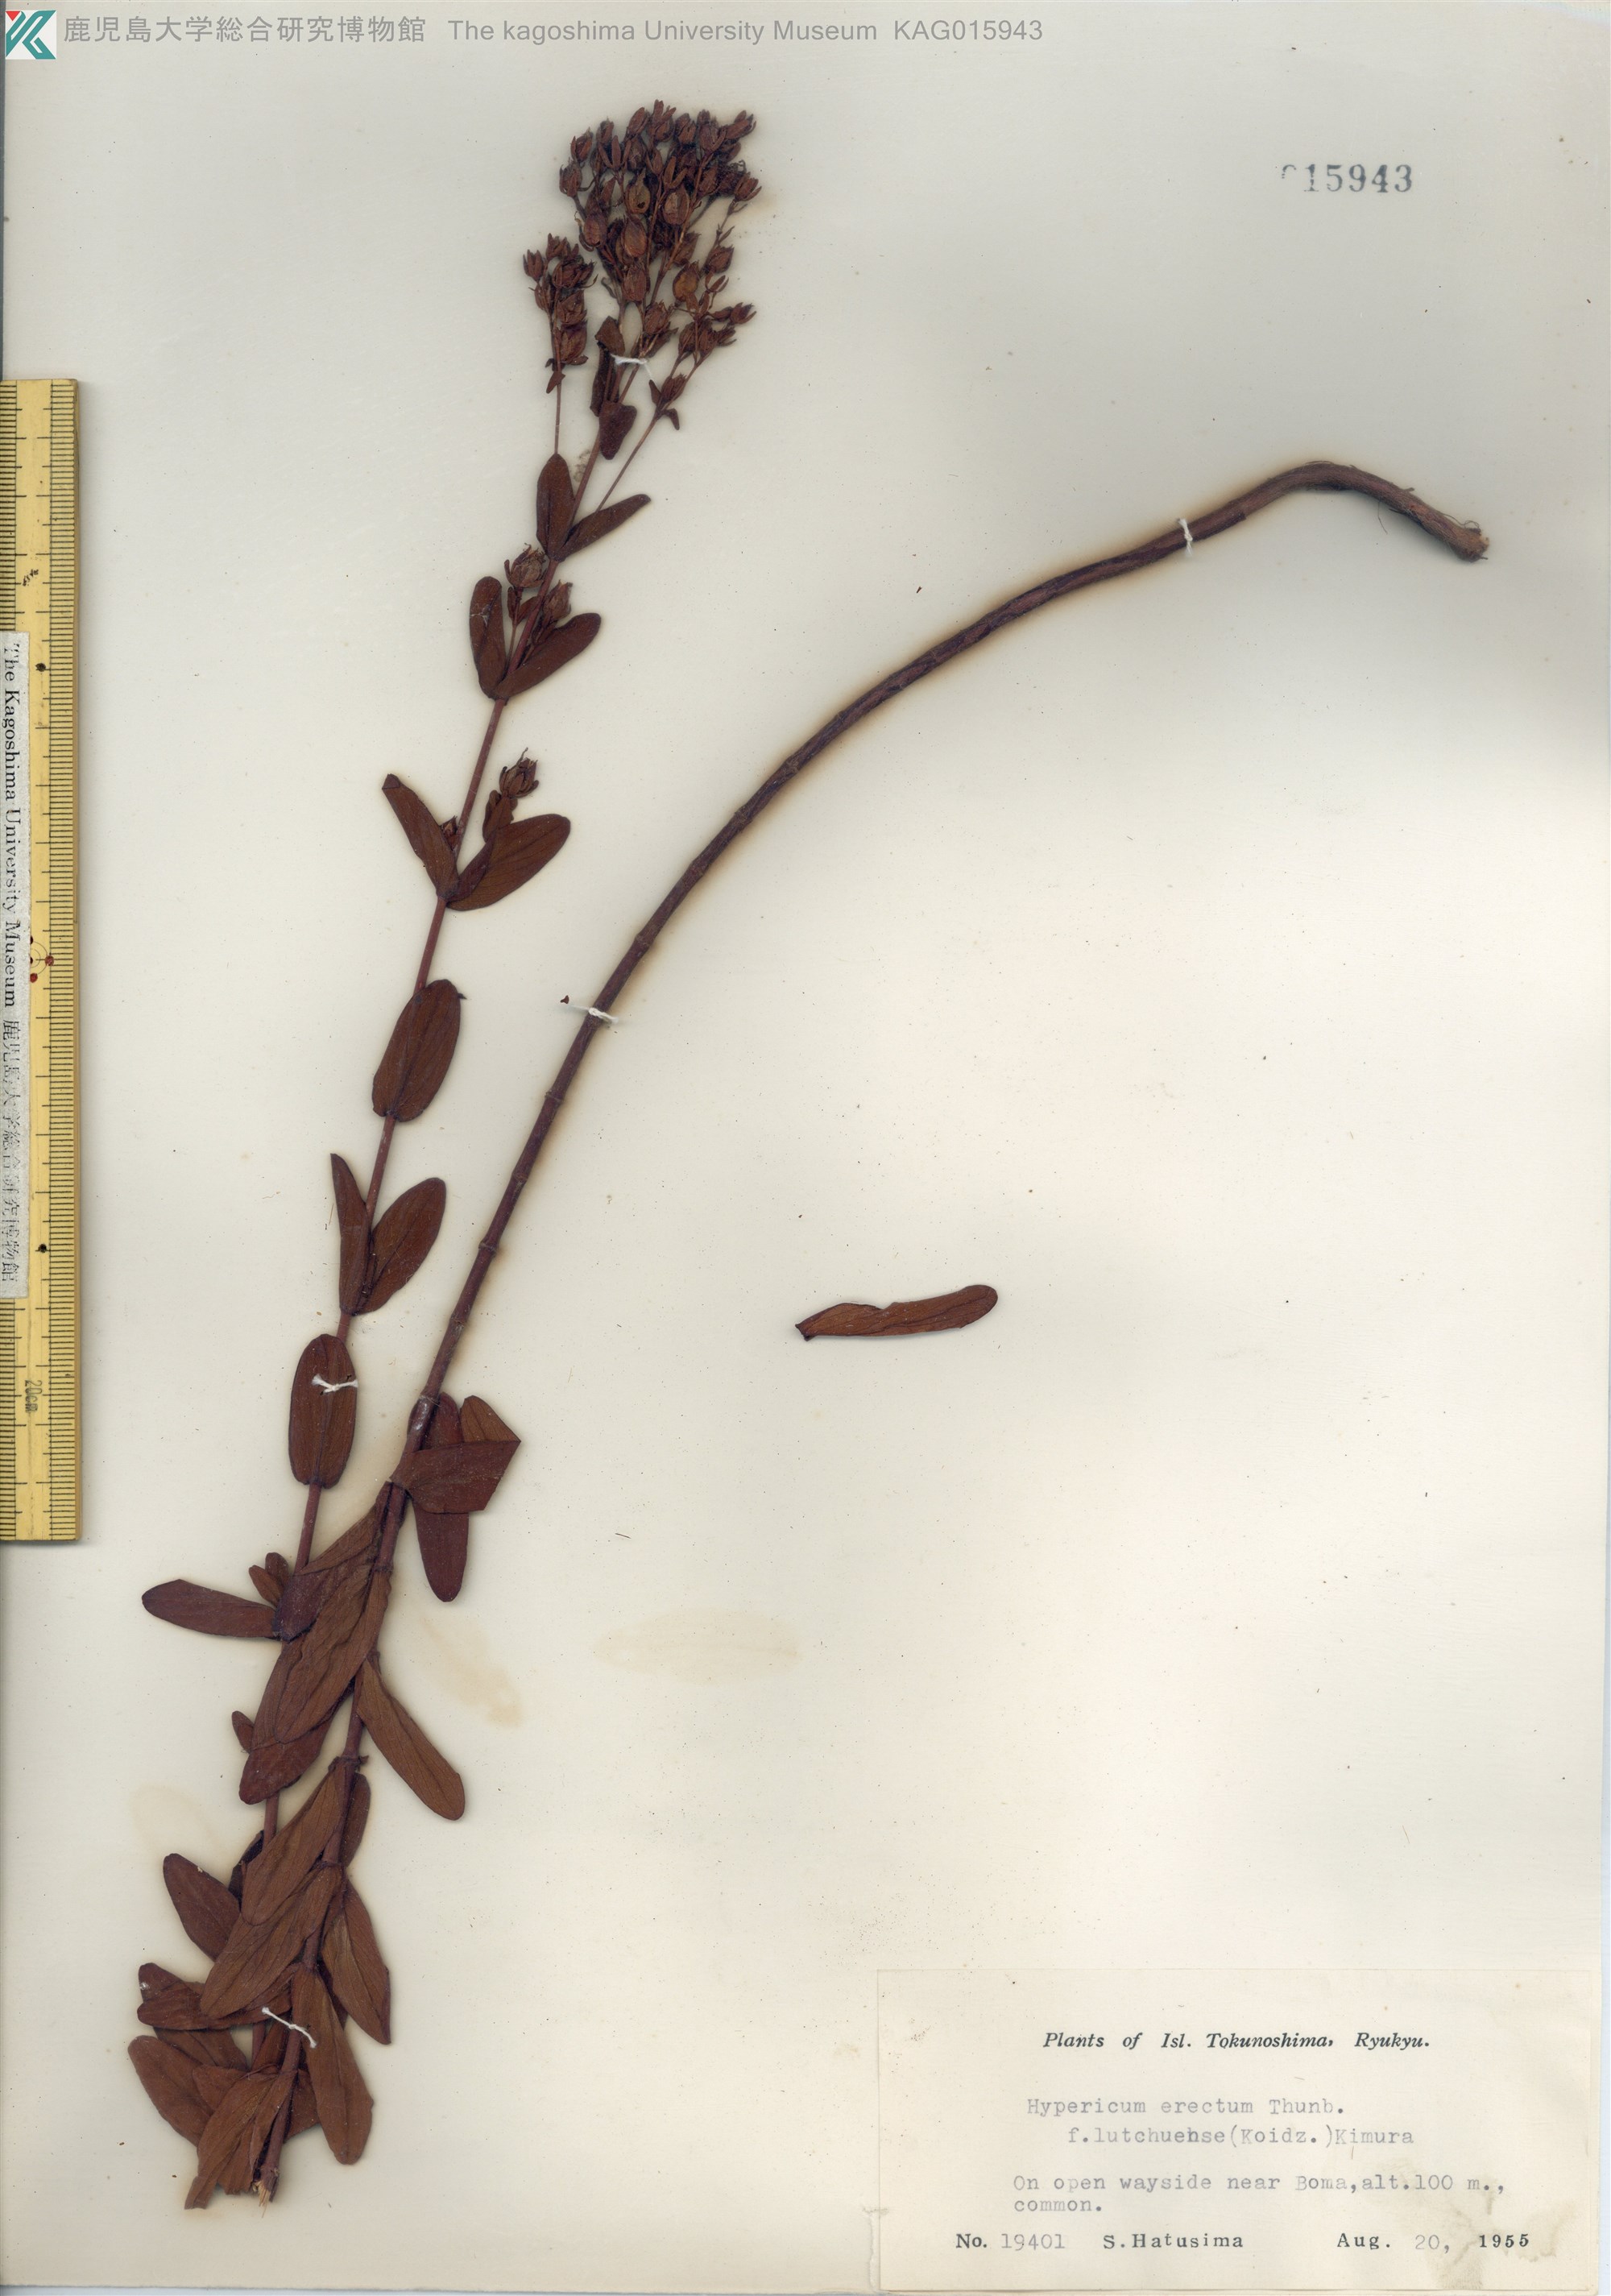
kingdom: Plantae
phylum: Tracheophyta
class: Magnoliopsida
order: Malpighiales
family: Hypericaceae
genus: Hypericum
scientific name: Hypericum erectum
